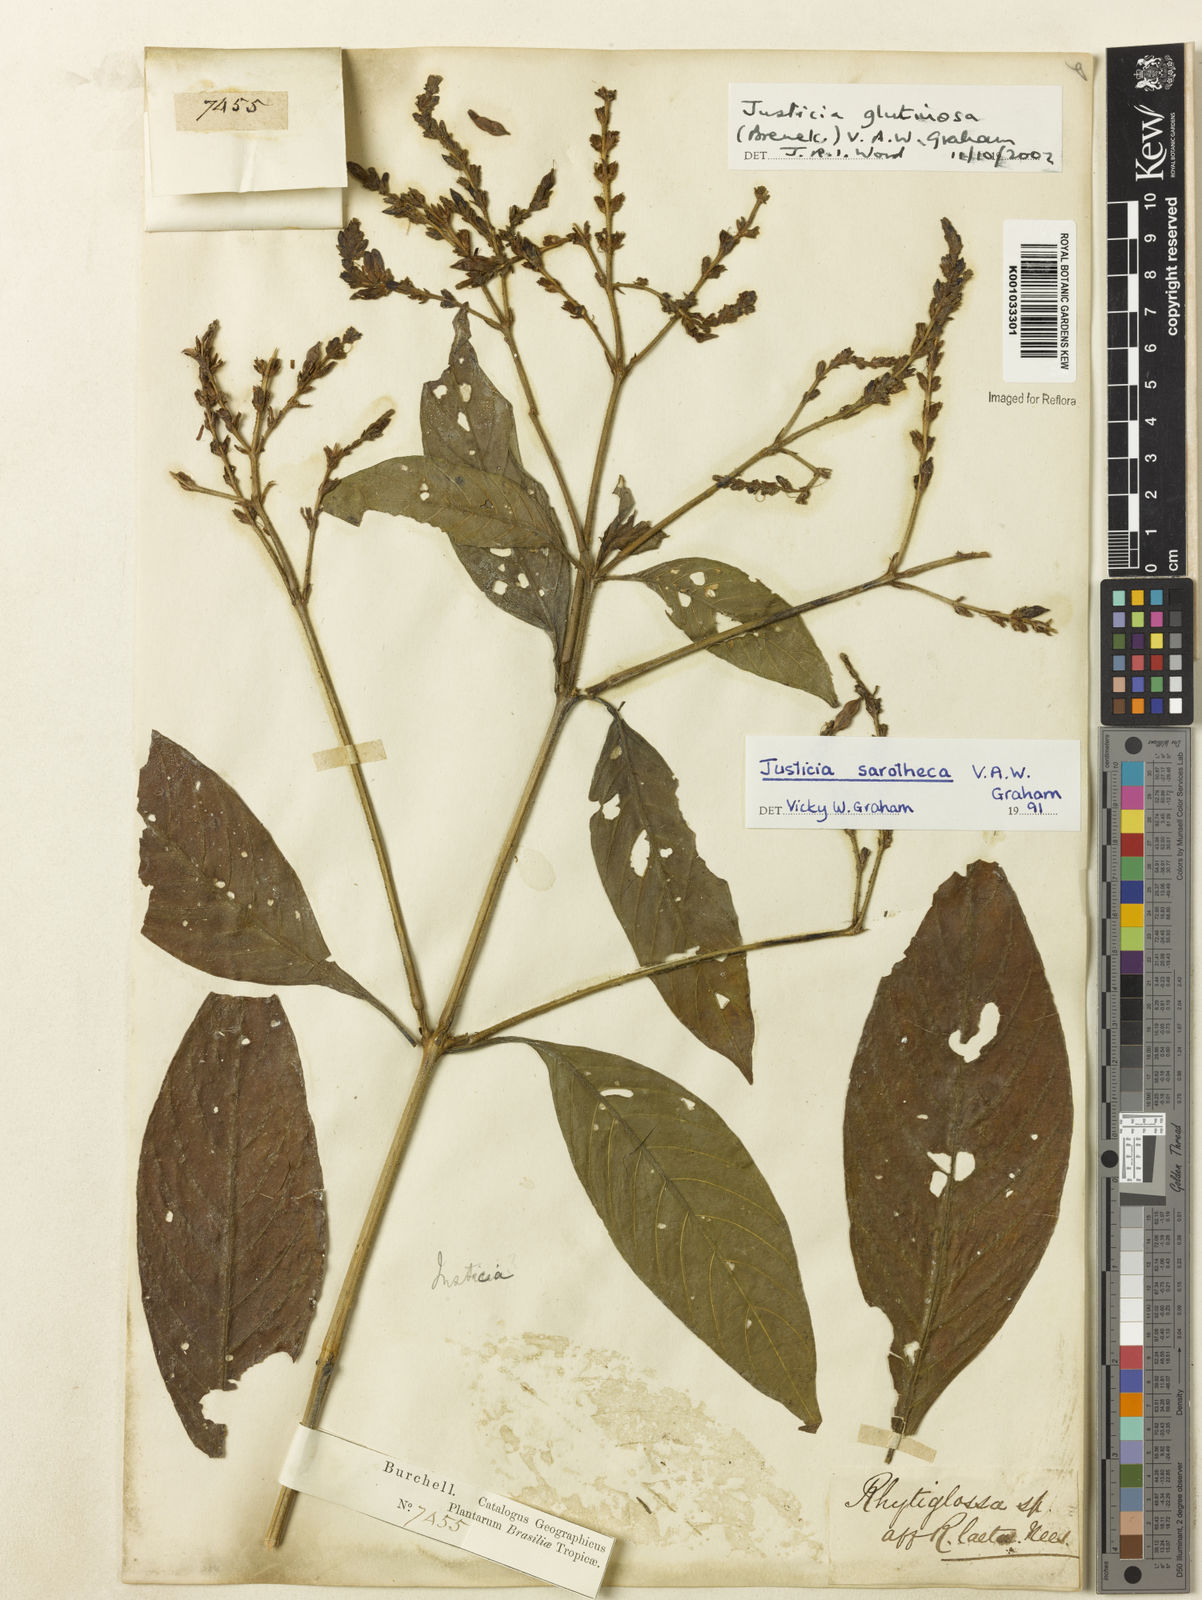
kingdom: Plantae
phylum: Tracheophyta
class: Magnoliopsida
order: Lamiales
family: Acanthaceae
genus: Justicia
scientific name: Justicia glutinosa
